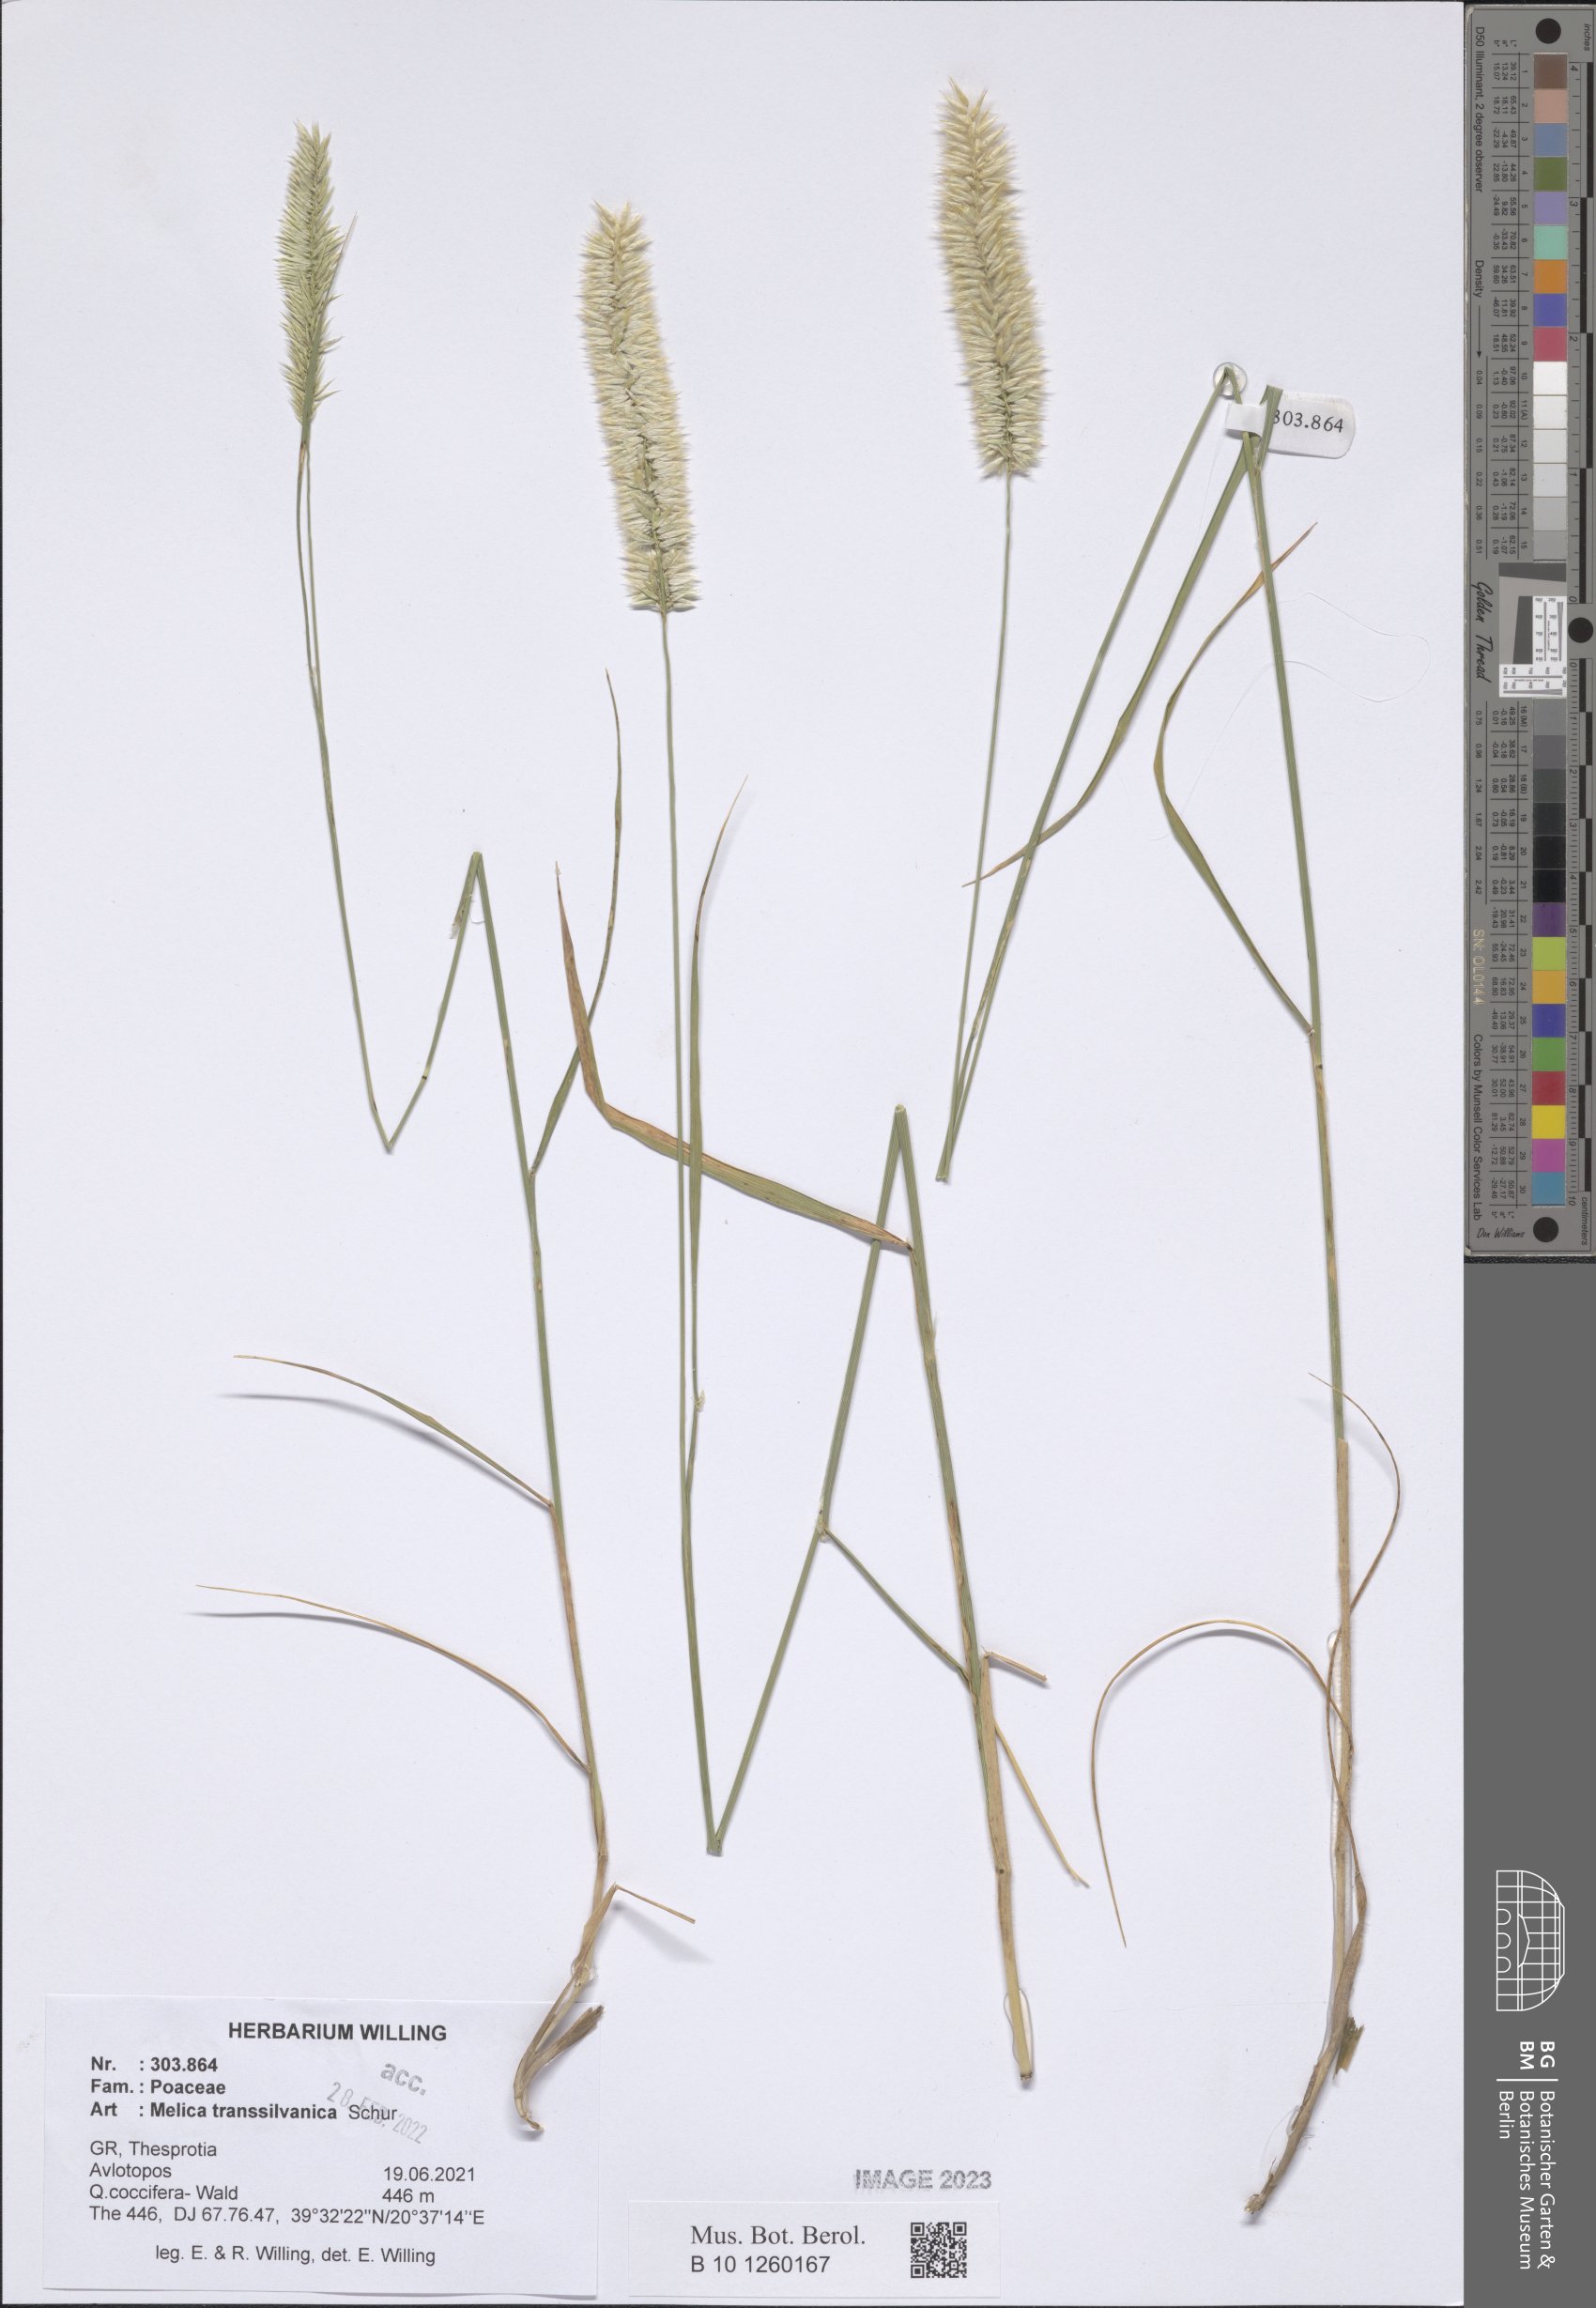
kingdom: Plantae
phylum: Tracheophyta
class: Liliopsida
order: Poales
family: Poaceae
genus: Melica
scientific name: Melica transsilvanica
